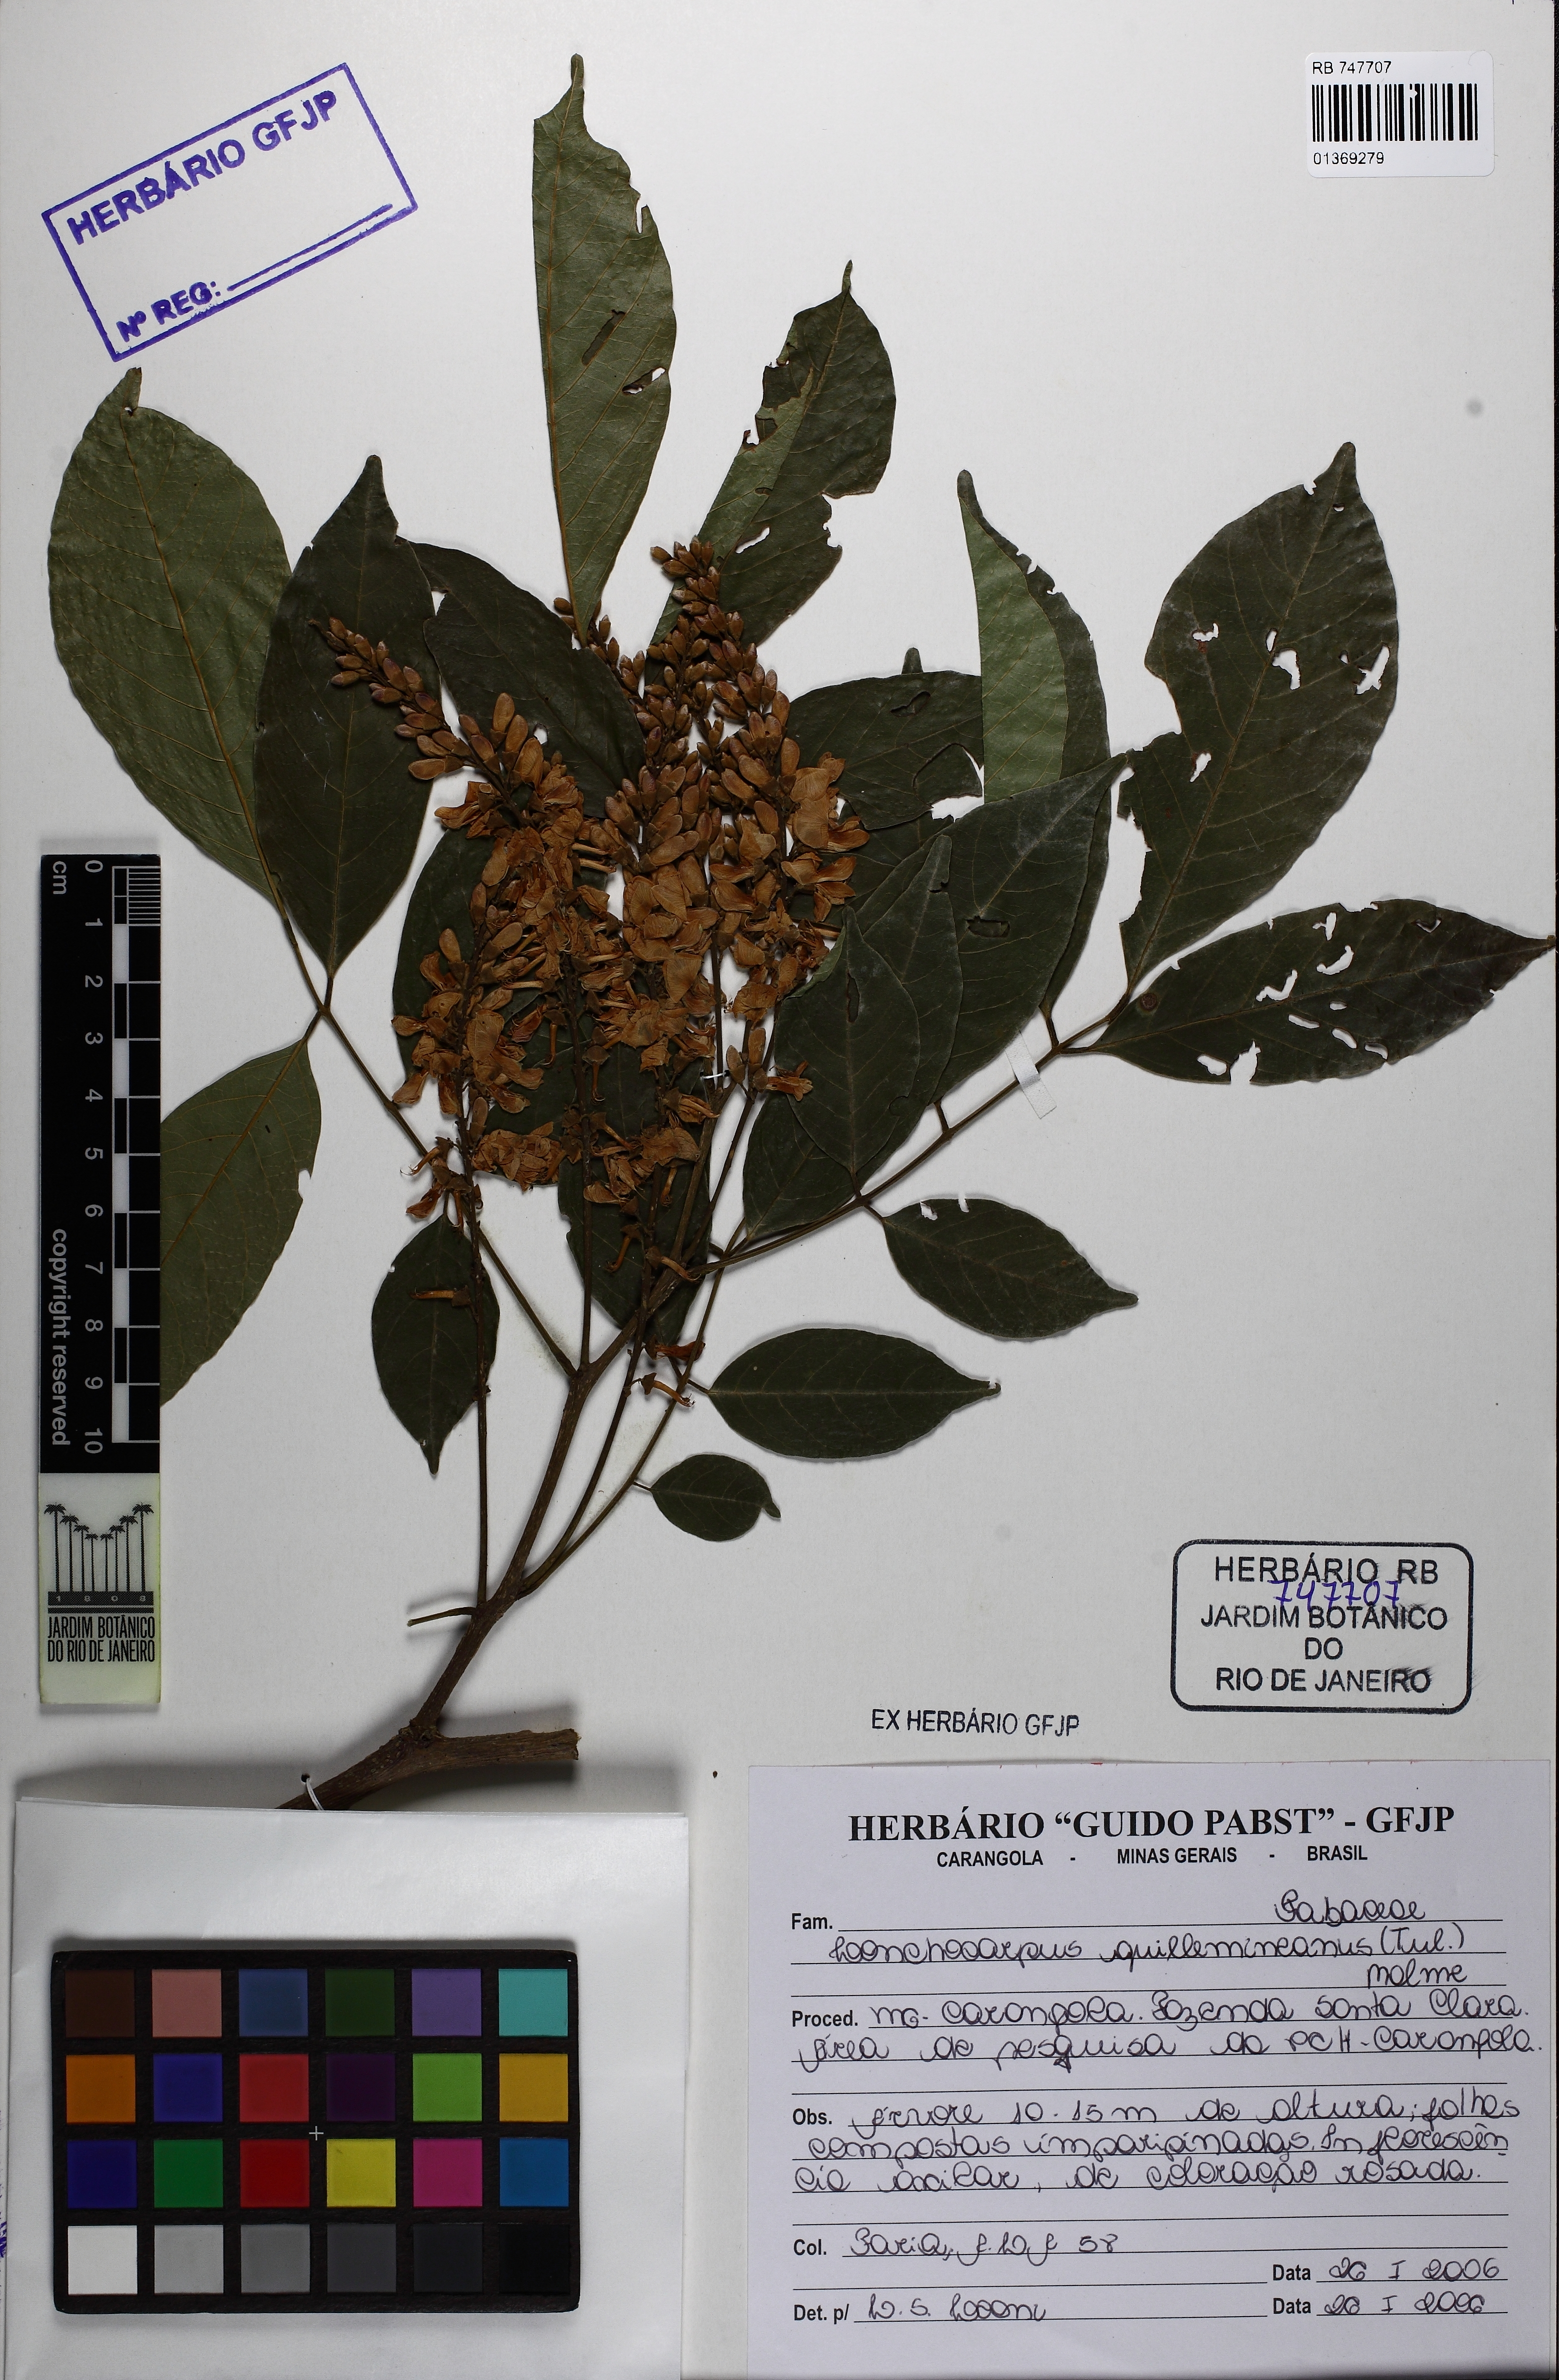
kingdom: Plantae
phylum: Tracheophyta
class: Magnoliopsida
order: Fabales
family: Fabaceae
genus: Lonchocarpus
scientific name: Lonchocarpus cultratus
